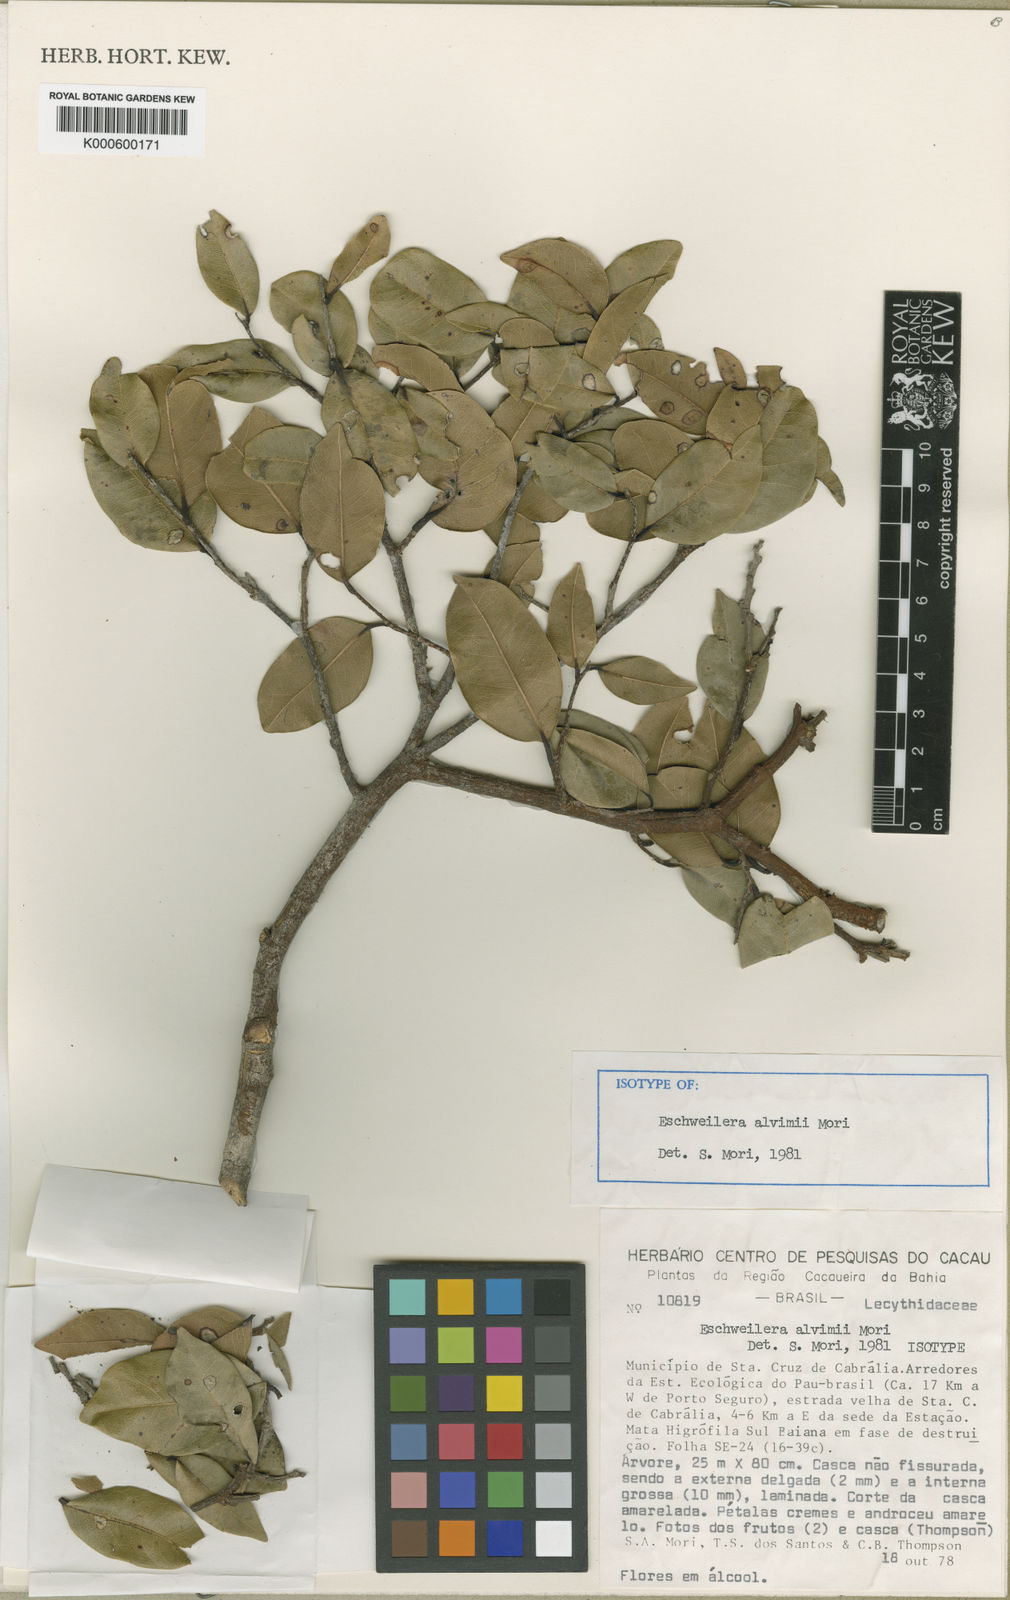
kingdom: Plantae
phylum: Tracheophyta
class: Magnoliopsida
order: Ericales
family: Lecythidaceae
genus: Eschweilera
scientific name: Eschweilera alvimii
